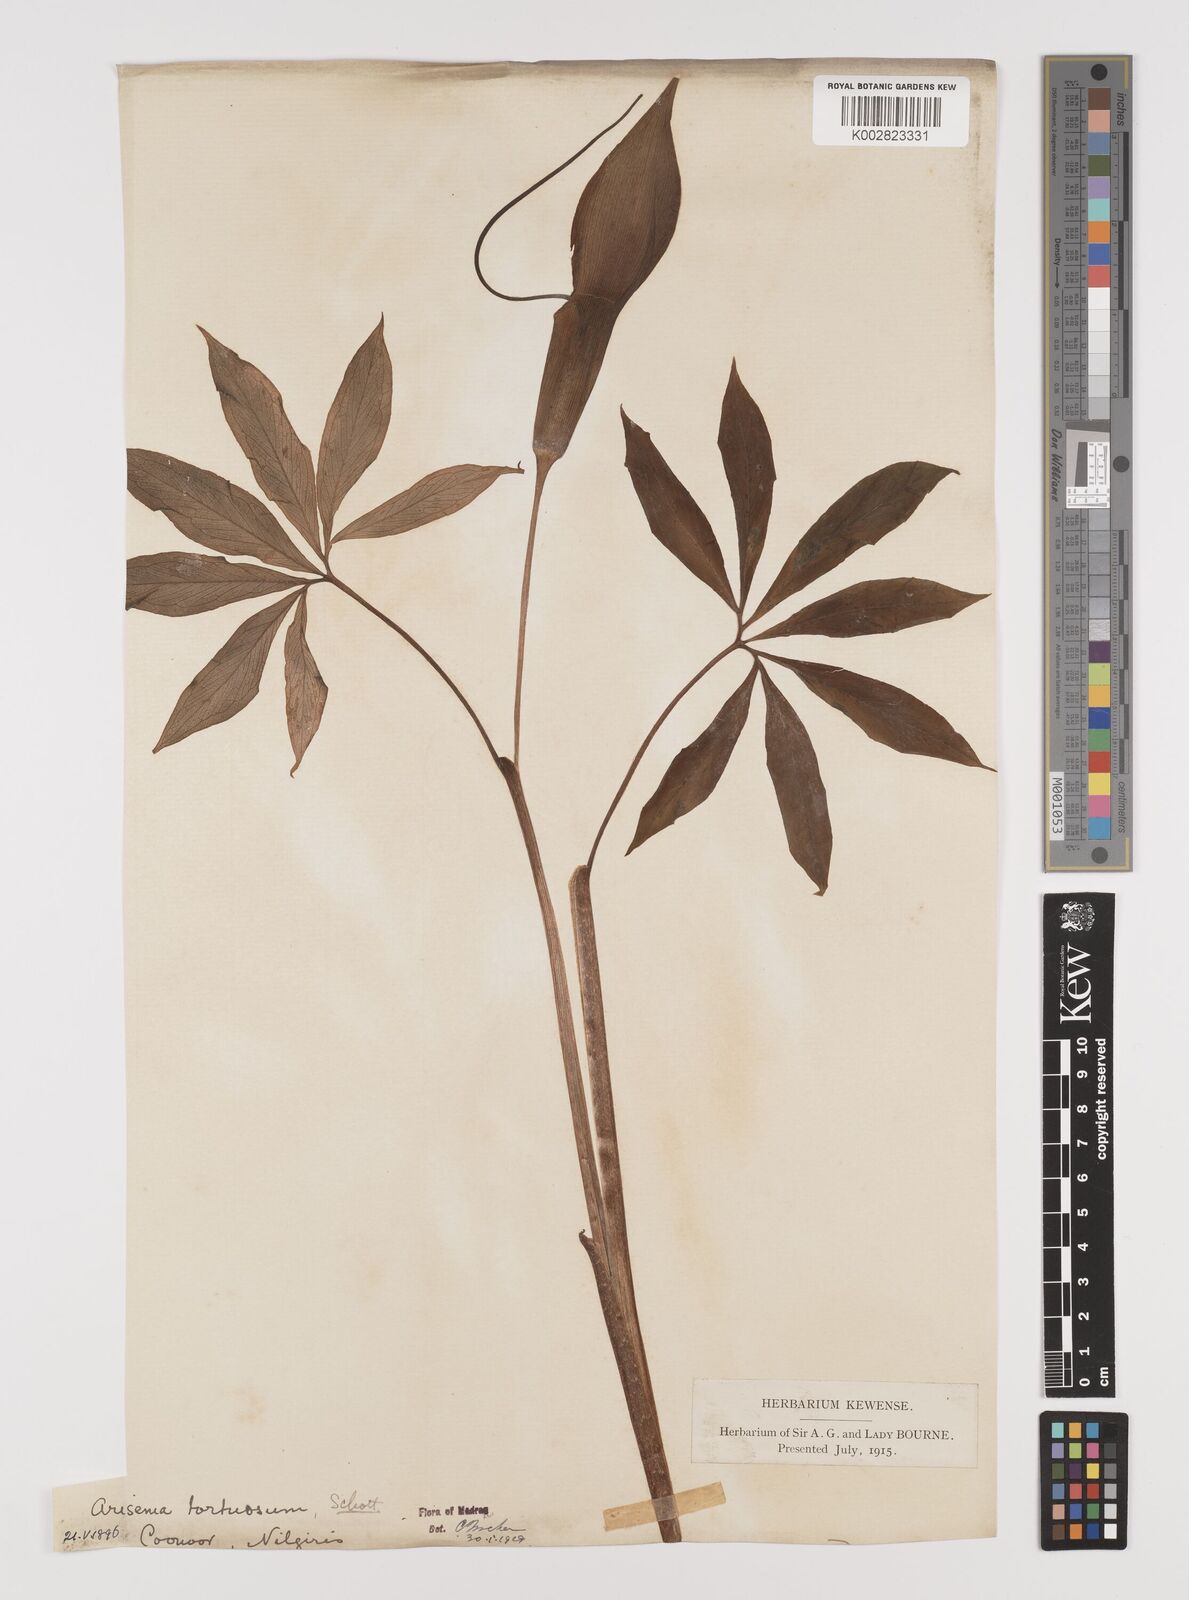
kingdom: Plantae
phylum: Tracheophyta
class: Liliopsida
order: Alismatales
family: Araceae
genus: Arisaema
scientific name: Arisaema tortuosum
